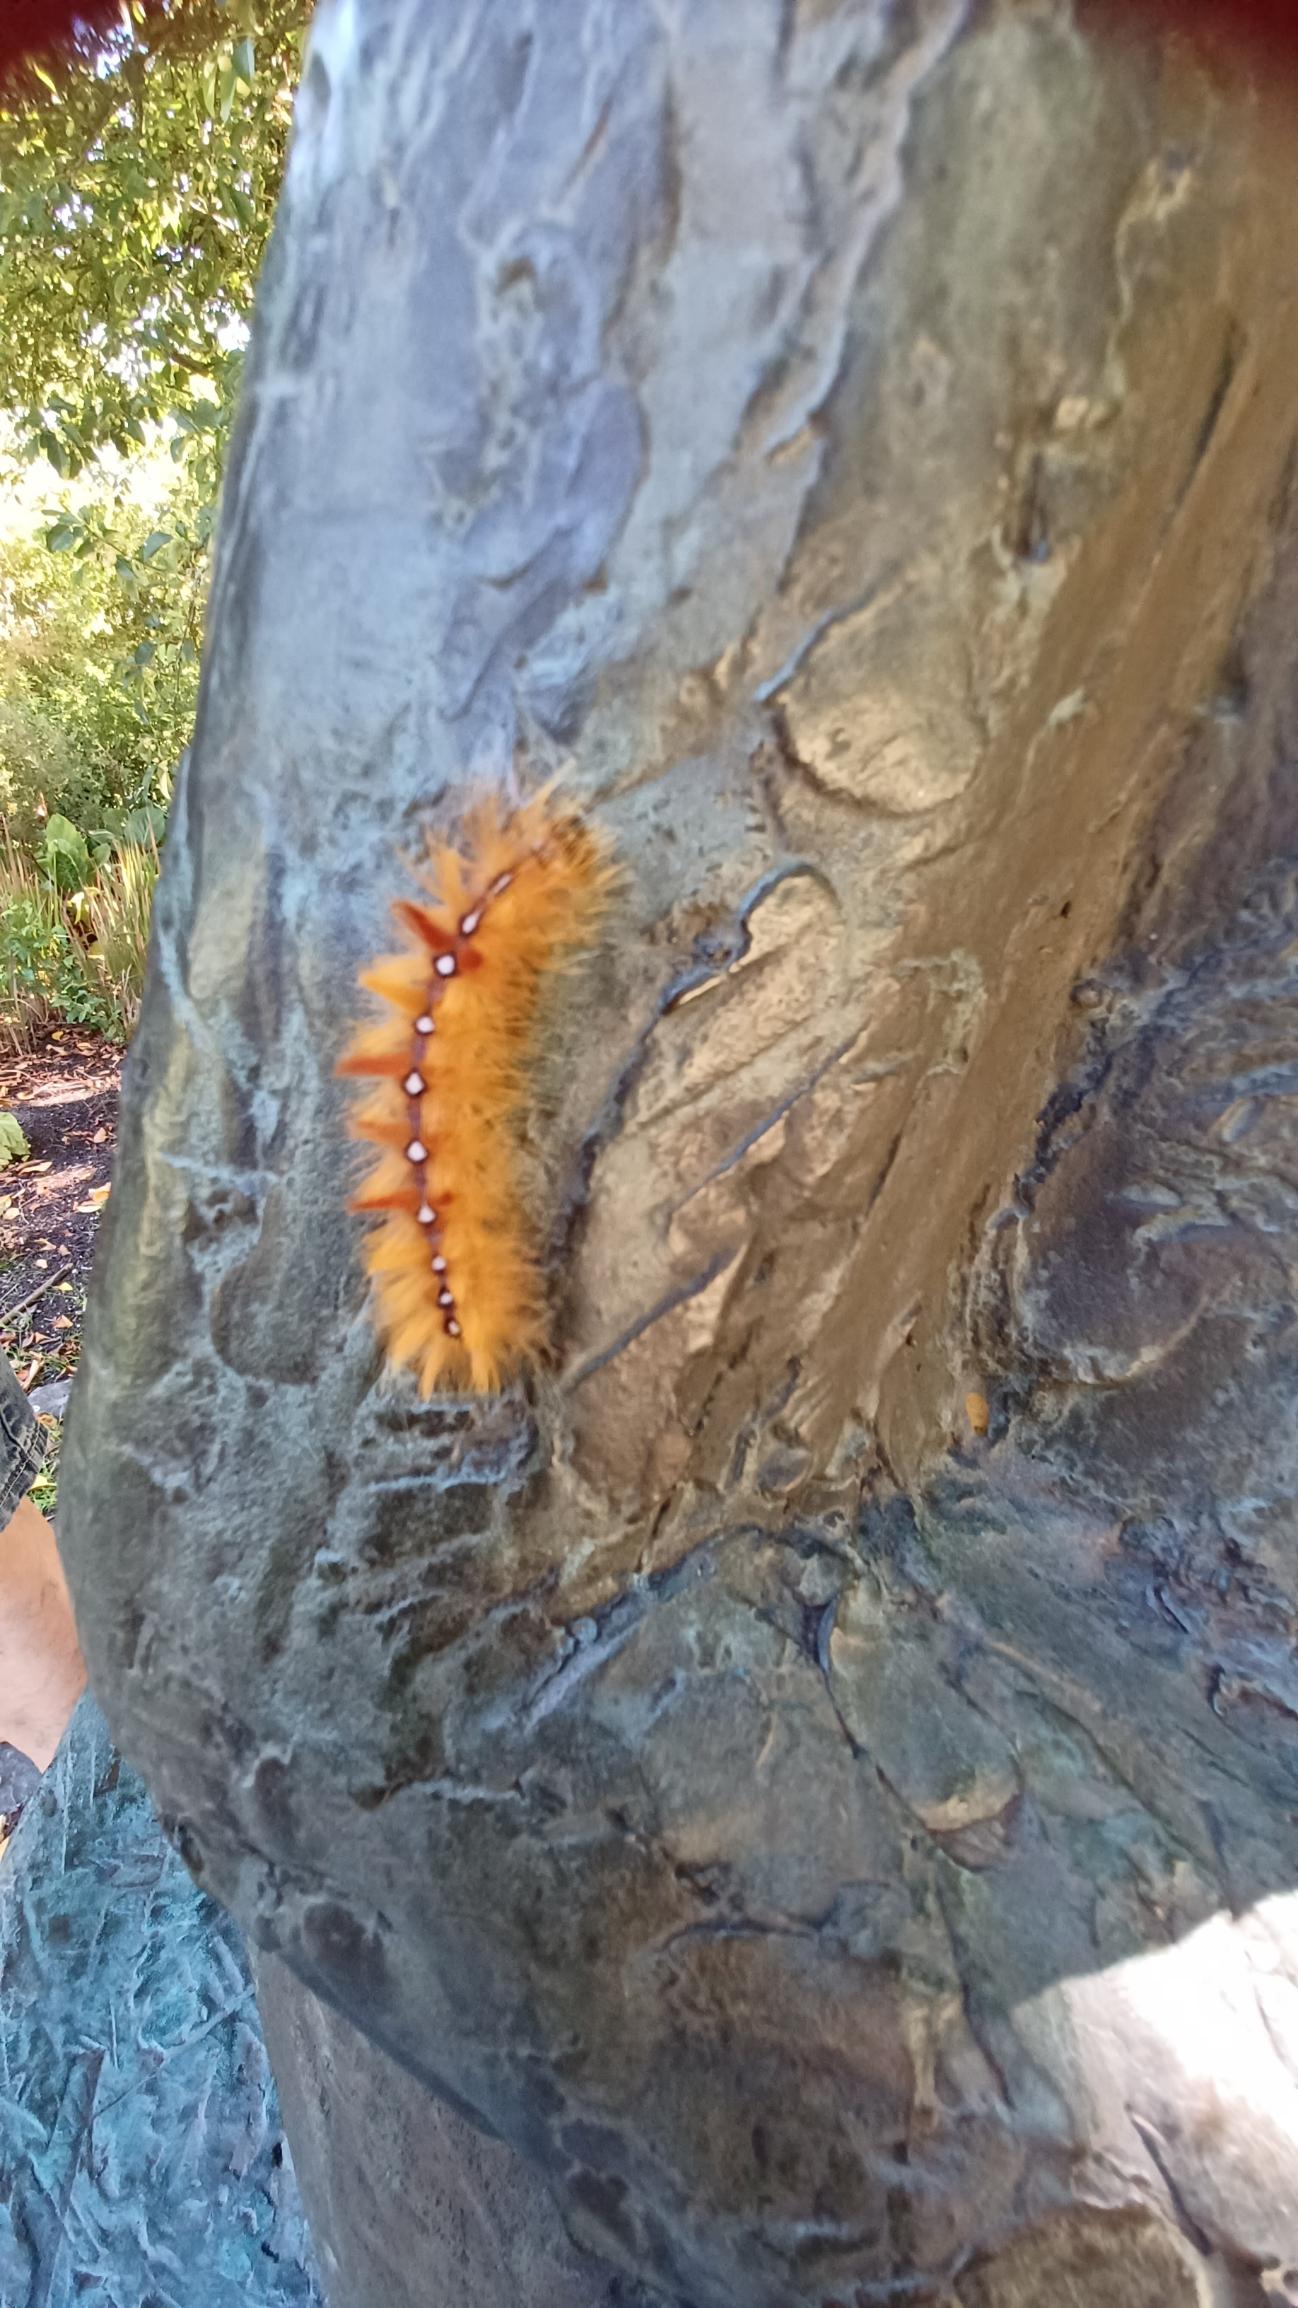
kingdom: Animalia
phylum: Arthropoda
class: Insecta
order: Lepidoptera
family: Noctuidae
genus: Acronicta
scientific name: Acronicta aceris
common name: Ahornugle
